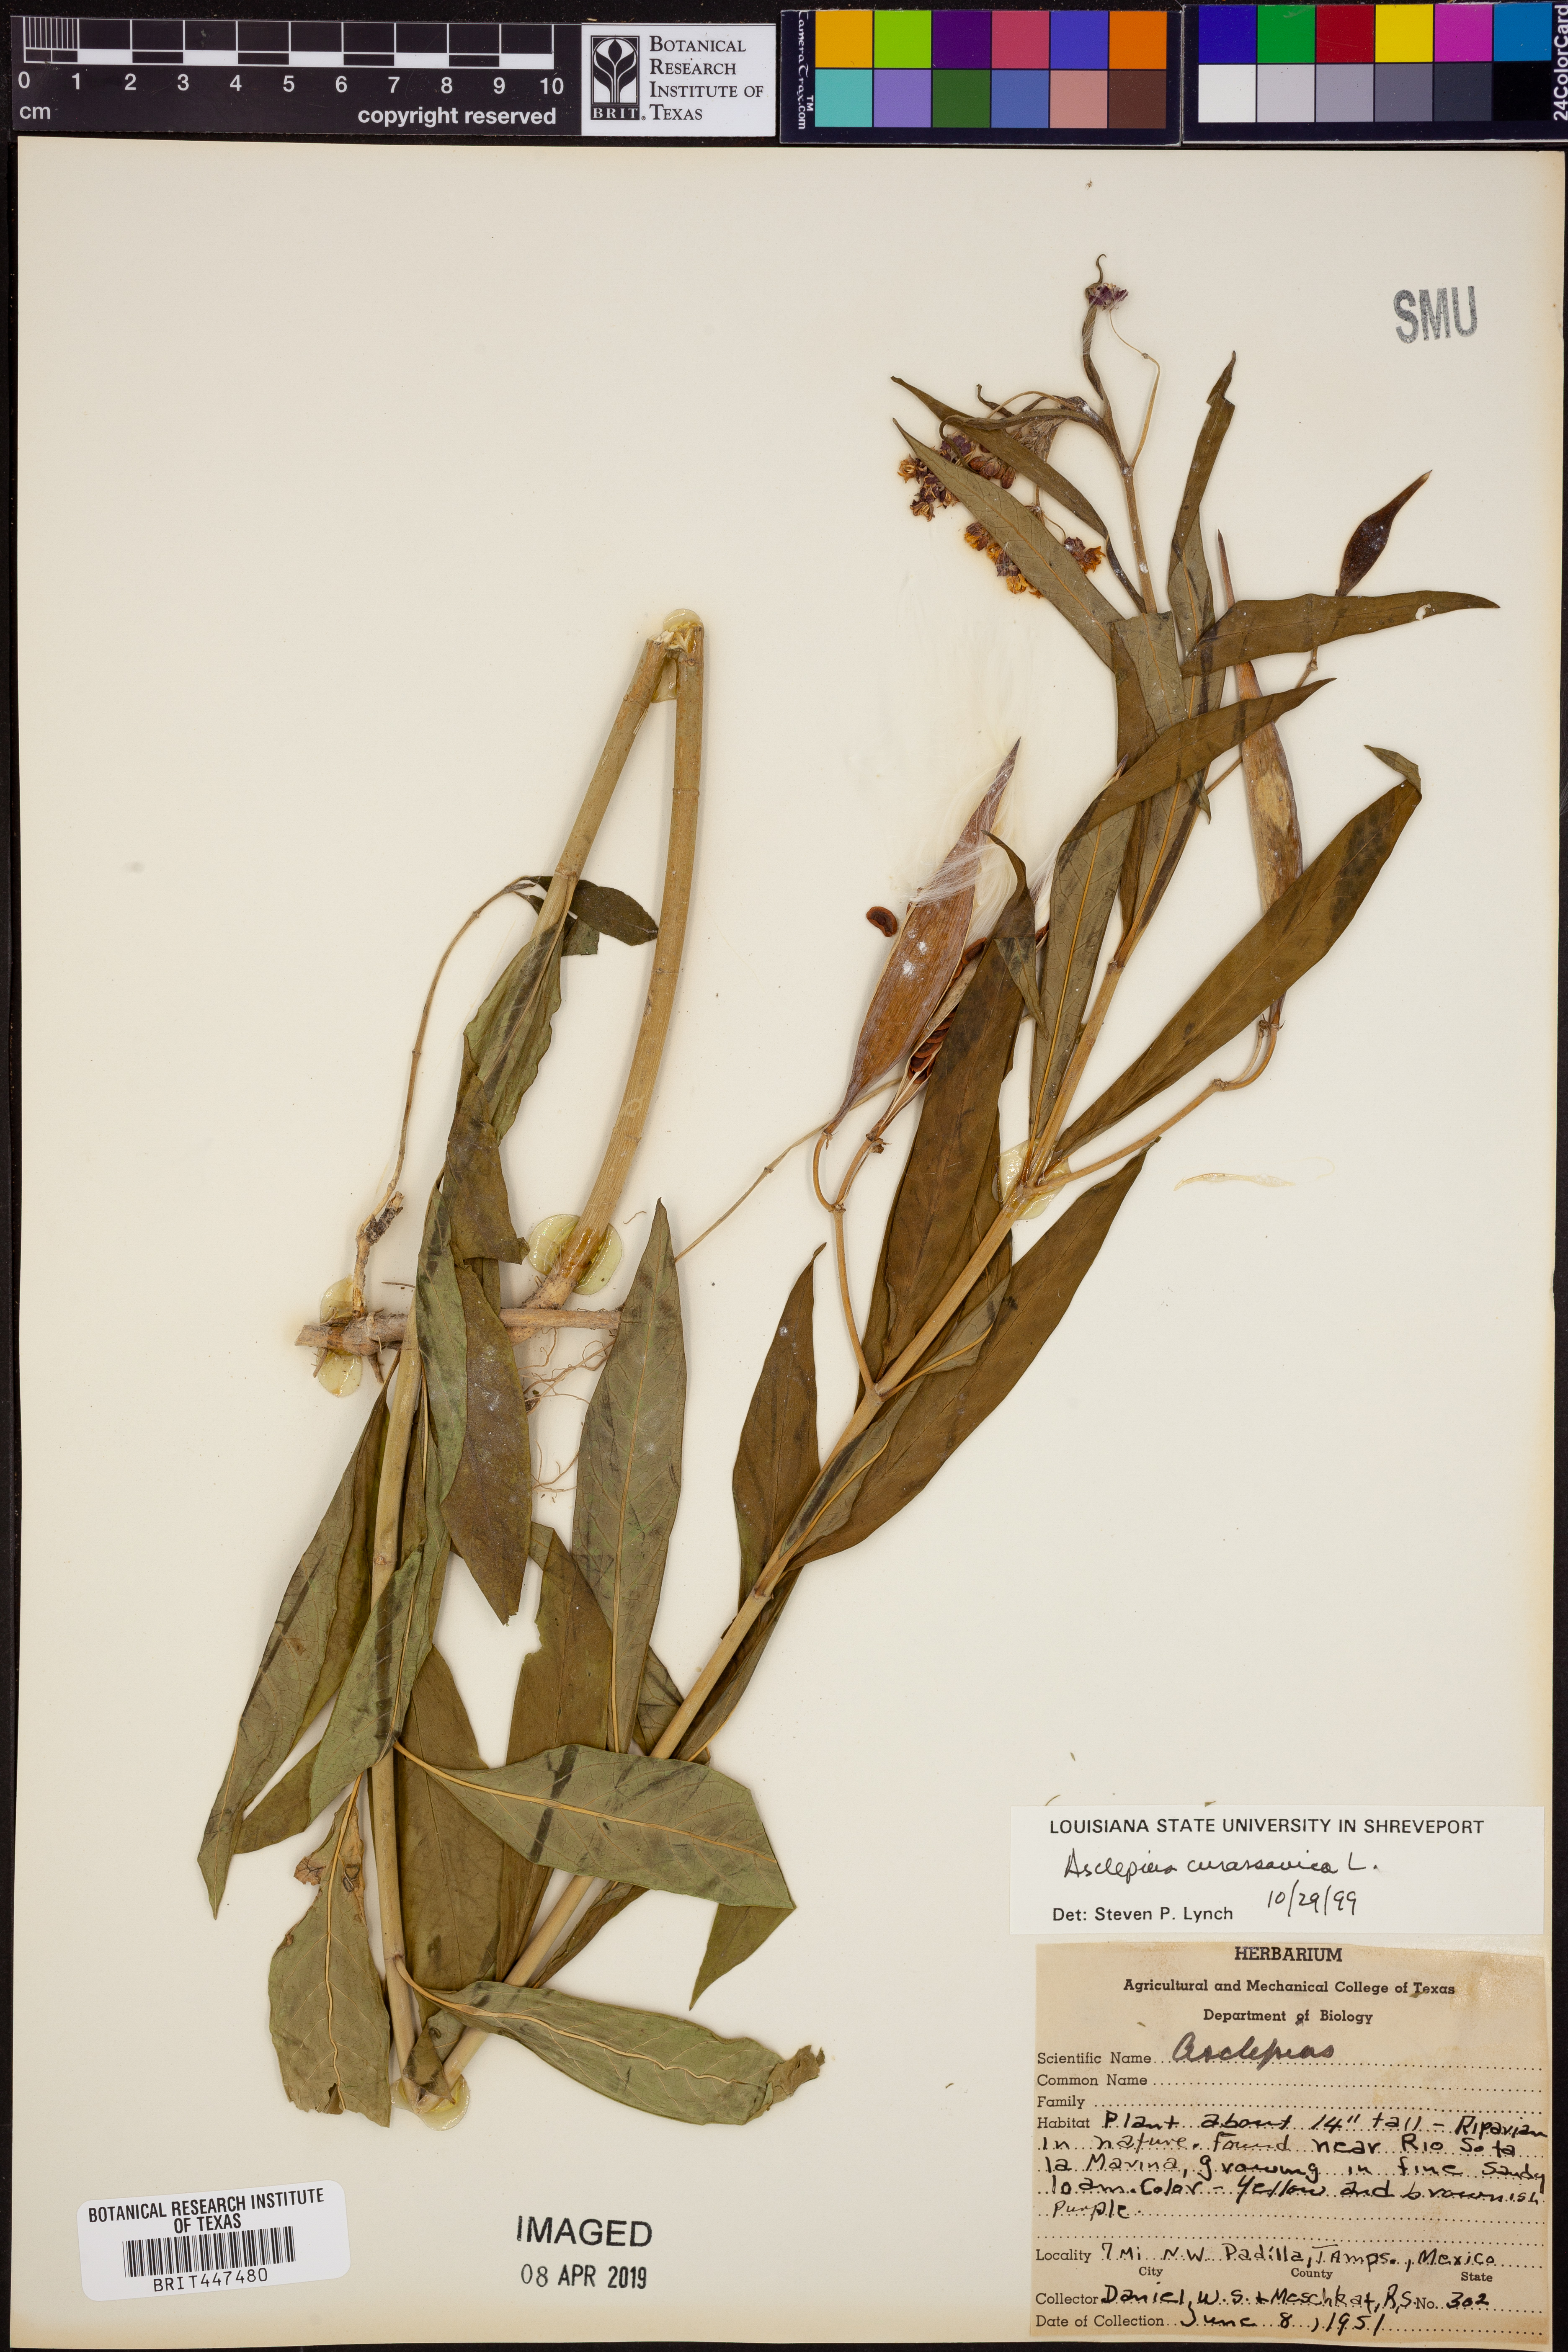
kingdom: Plantae
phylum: Tracheophyta
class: Magnoliopsida
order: Gentianales
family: Apocynaceae
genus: Asclepias
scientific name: Asclepias curassavica
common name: Bloodflower
